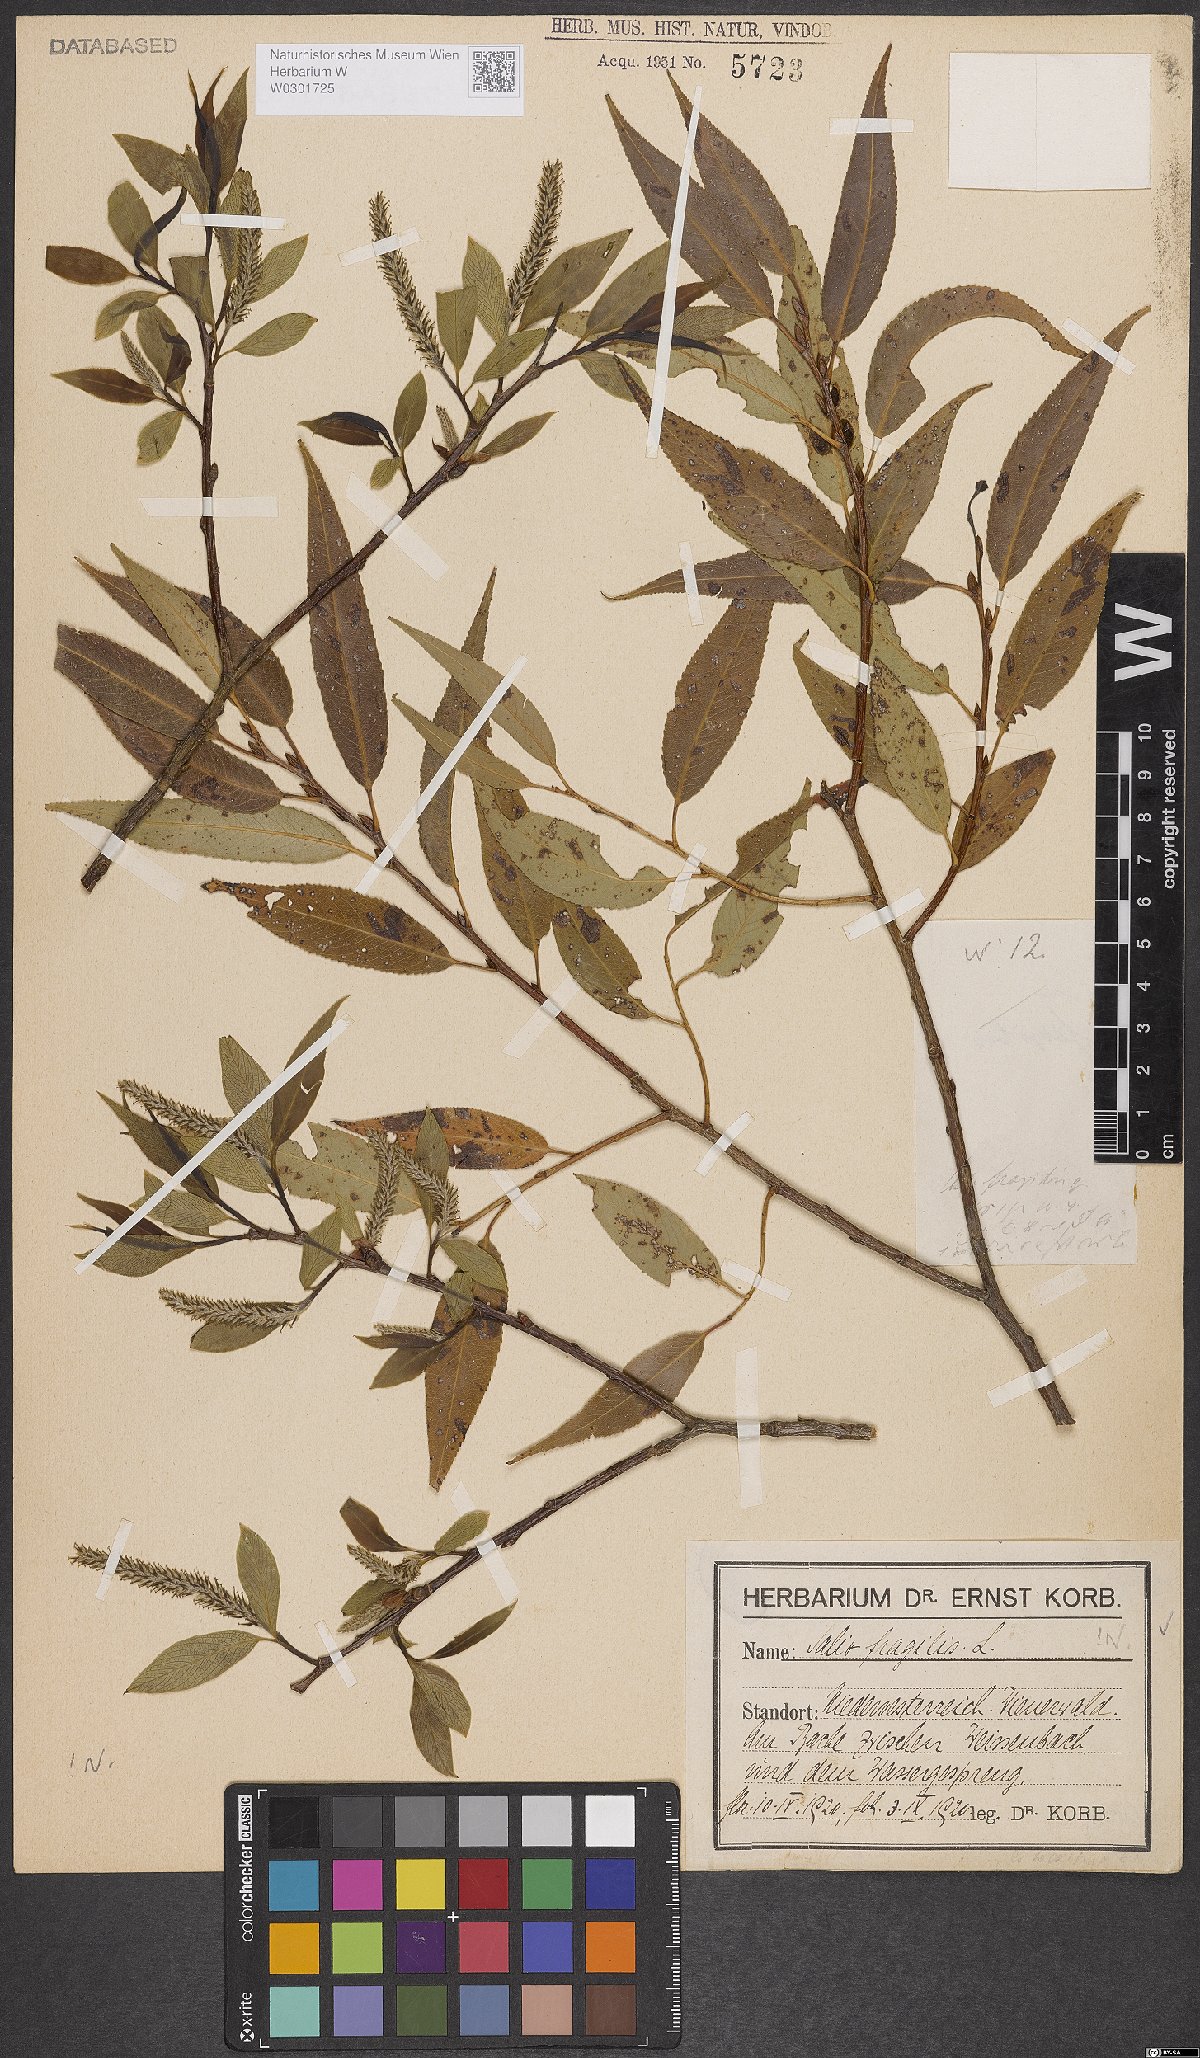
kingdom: Plantae
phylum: Tracheophyta
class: Magnoliopsida
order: Malpighiales
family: Salicaceae
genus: Salix
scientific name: Salix fragilis
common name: Crack willow
